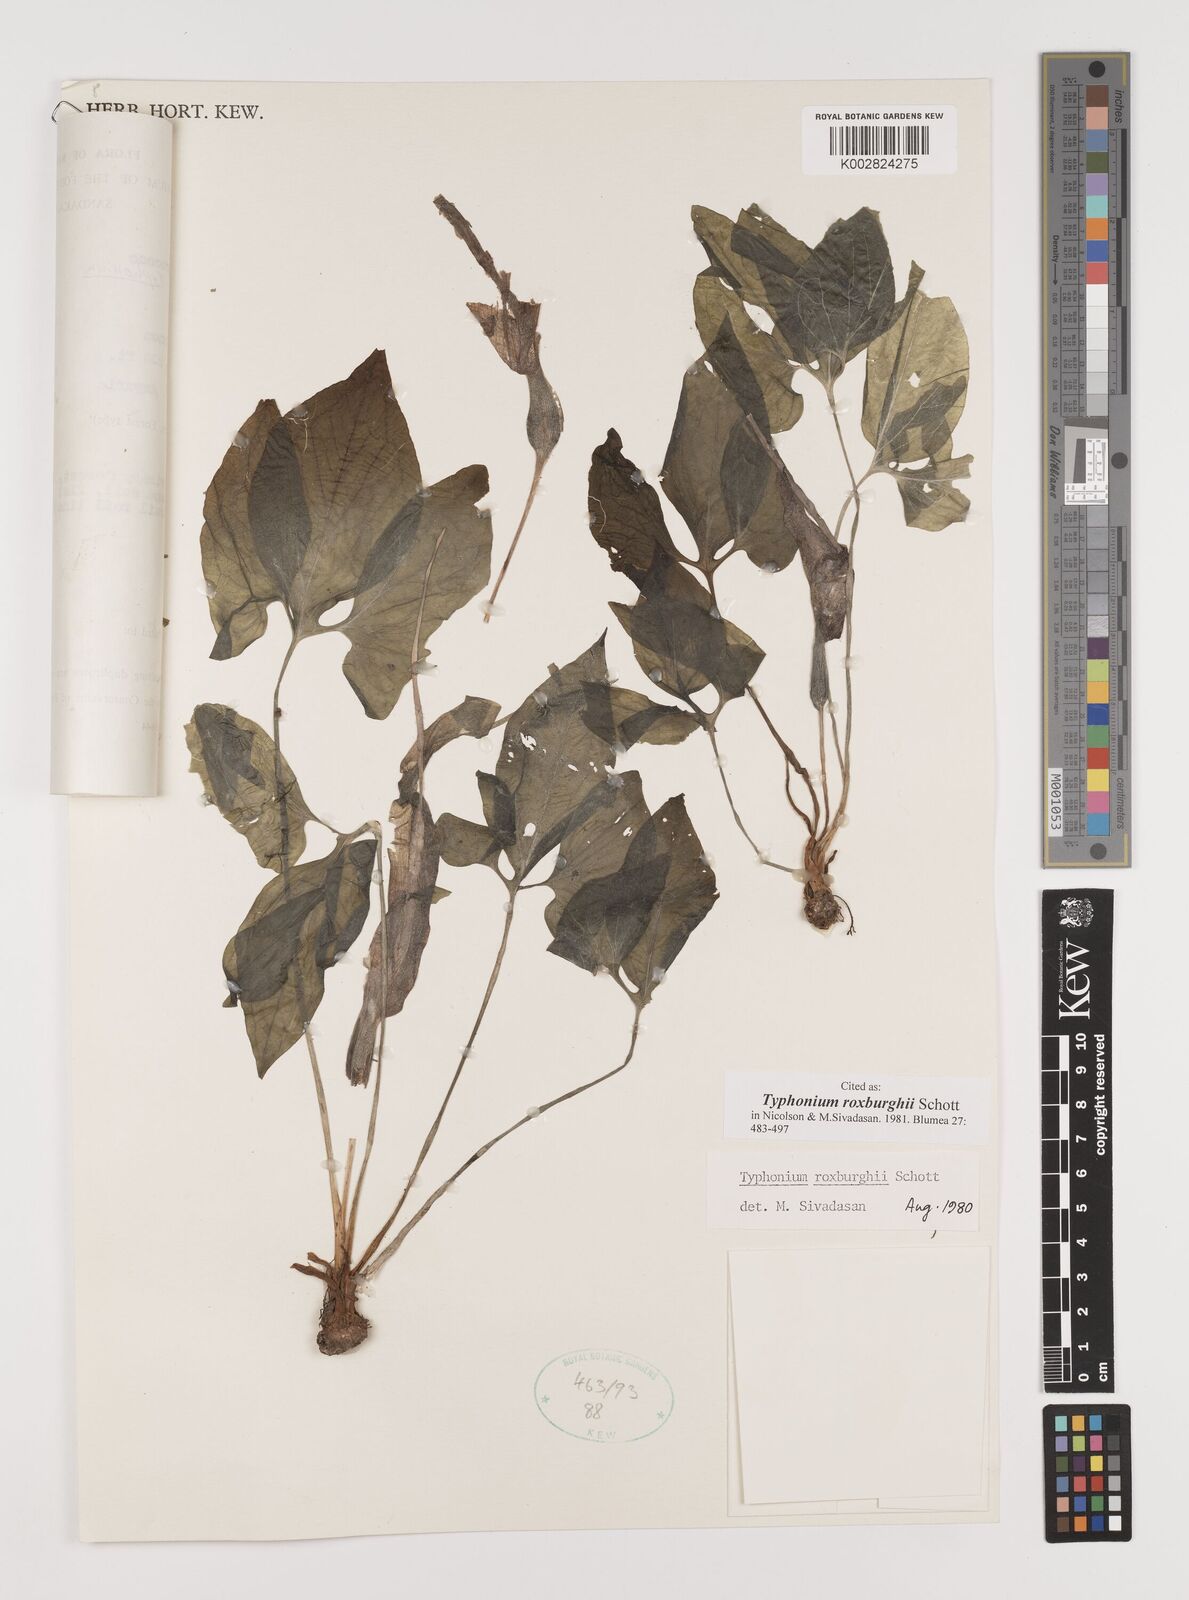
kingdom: Plantae
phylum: Tracheophyta
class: Liliopsida
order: Alismatales
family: Araceae
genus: Typhonium
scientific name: Typhonium roxburghii
